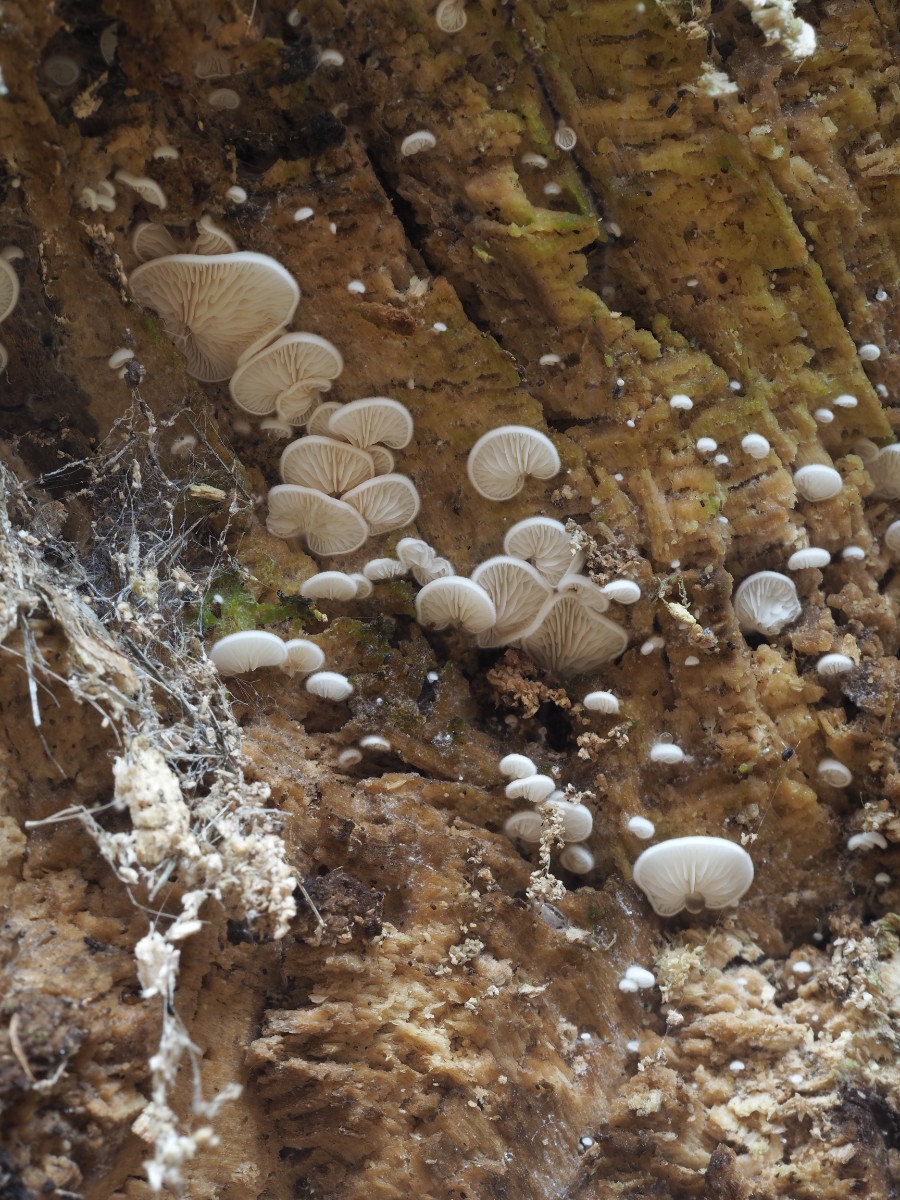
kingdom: Fungi
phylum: Basidiomycota
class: Agaricomycetes
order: Agaricales
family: Entolomataceae
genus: Clitopilus
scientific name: Clitopilus hobsonii
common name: Miller's oysterling
